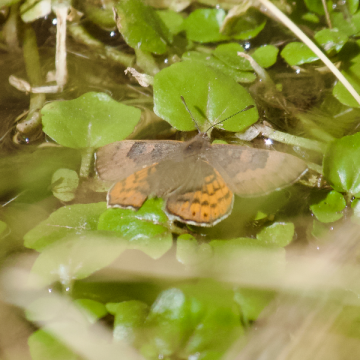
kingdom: Animalia
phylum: Arthropoda
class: Insecta
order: Lepidoptera
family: Lycaenidae
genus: Emesis
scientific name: Emesis zela
